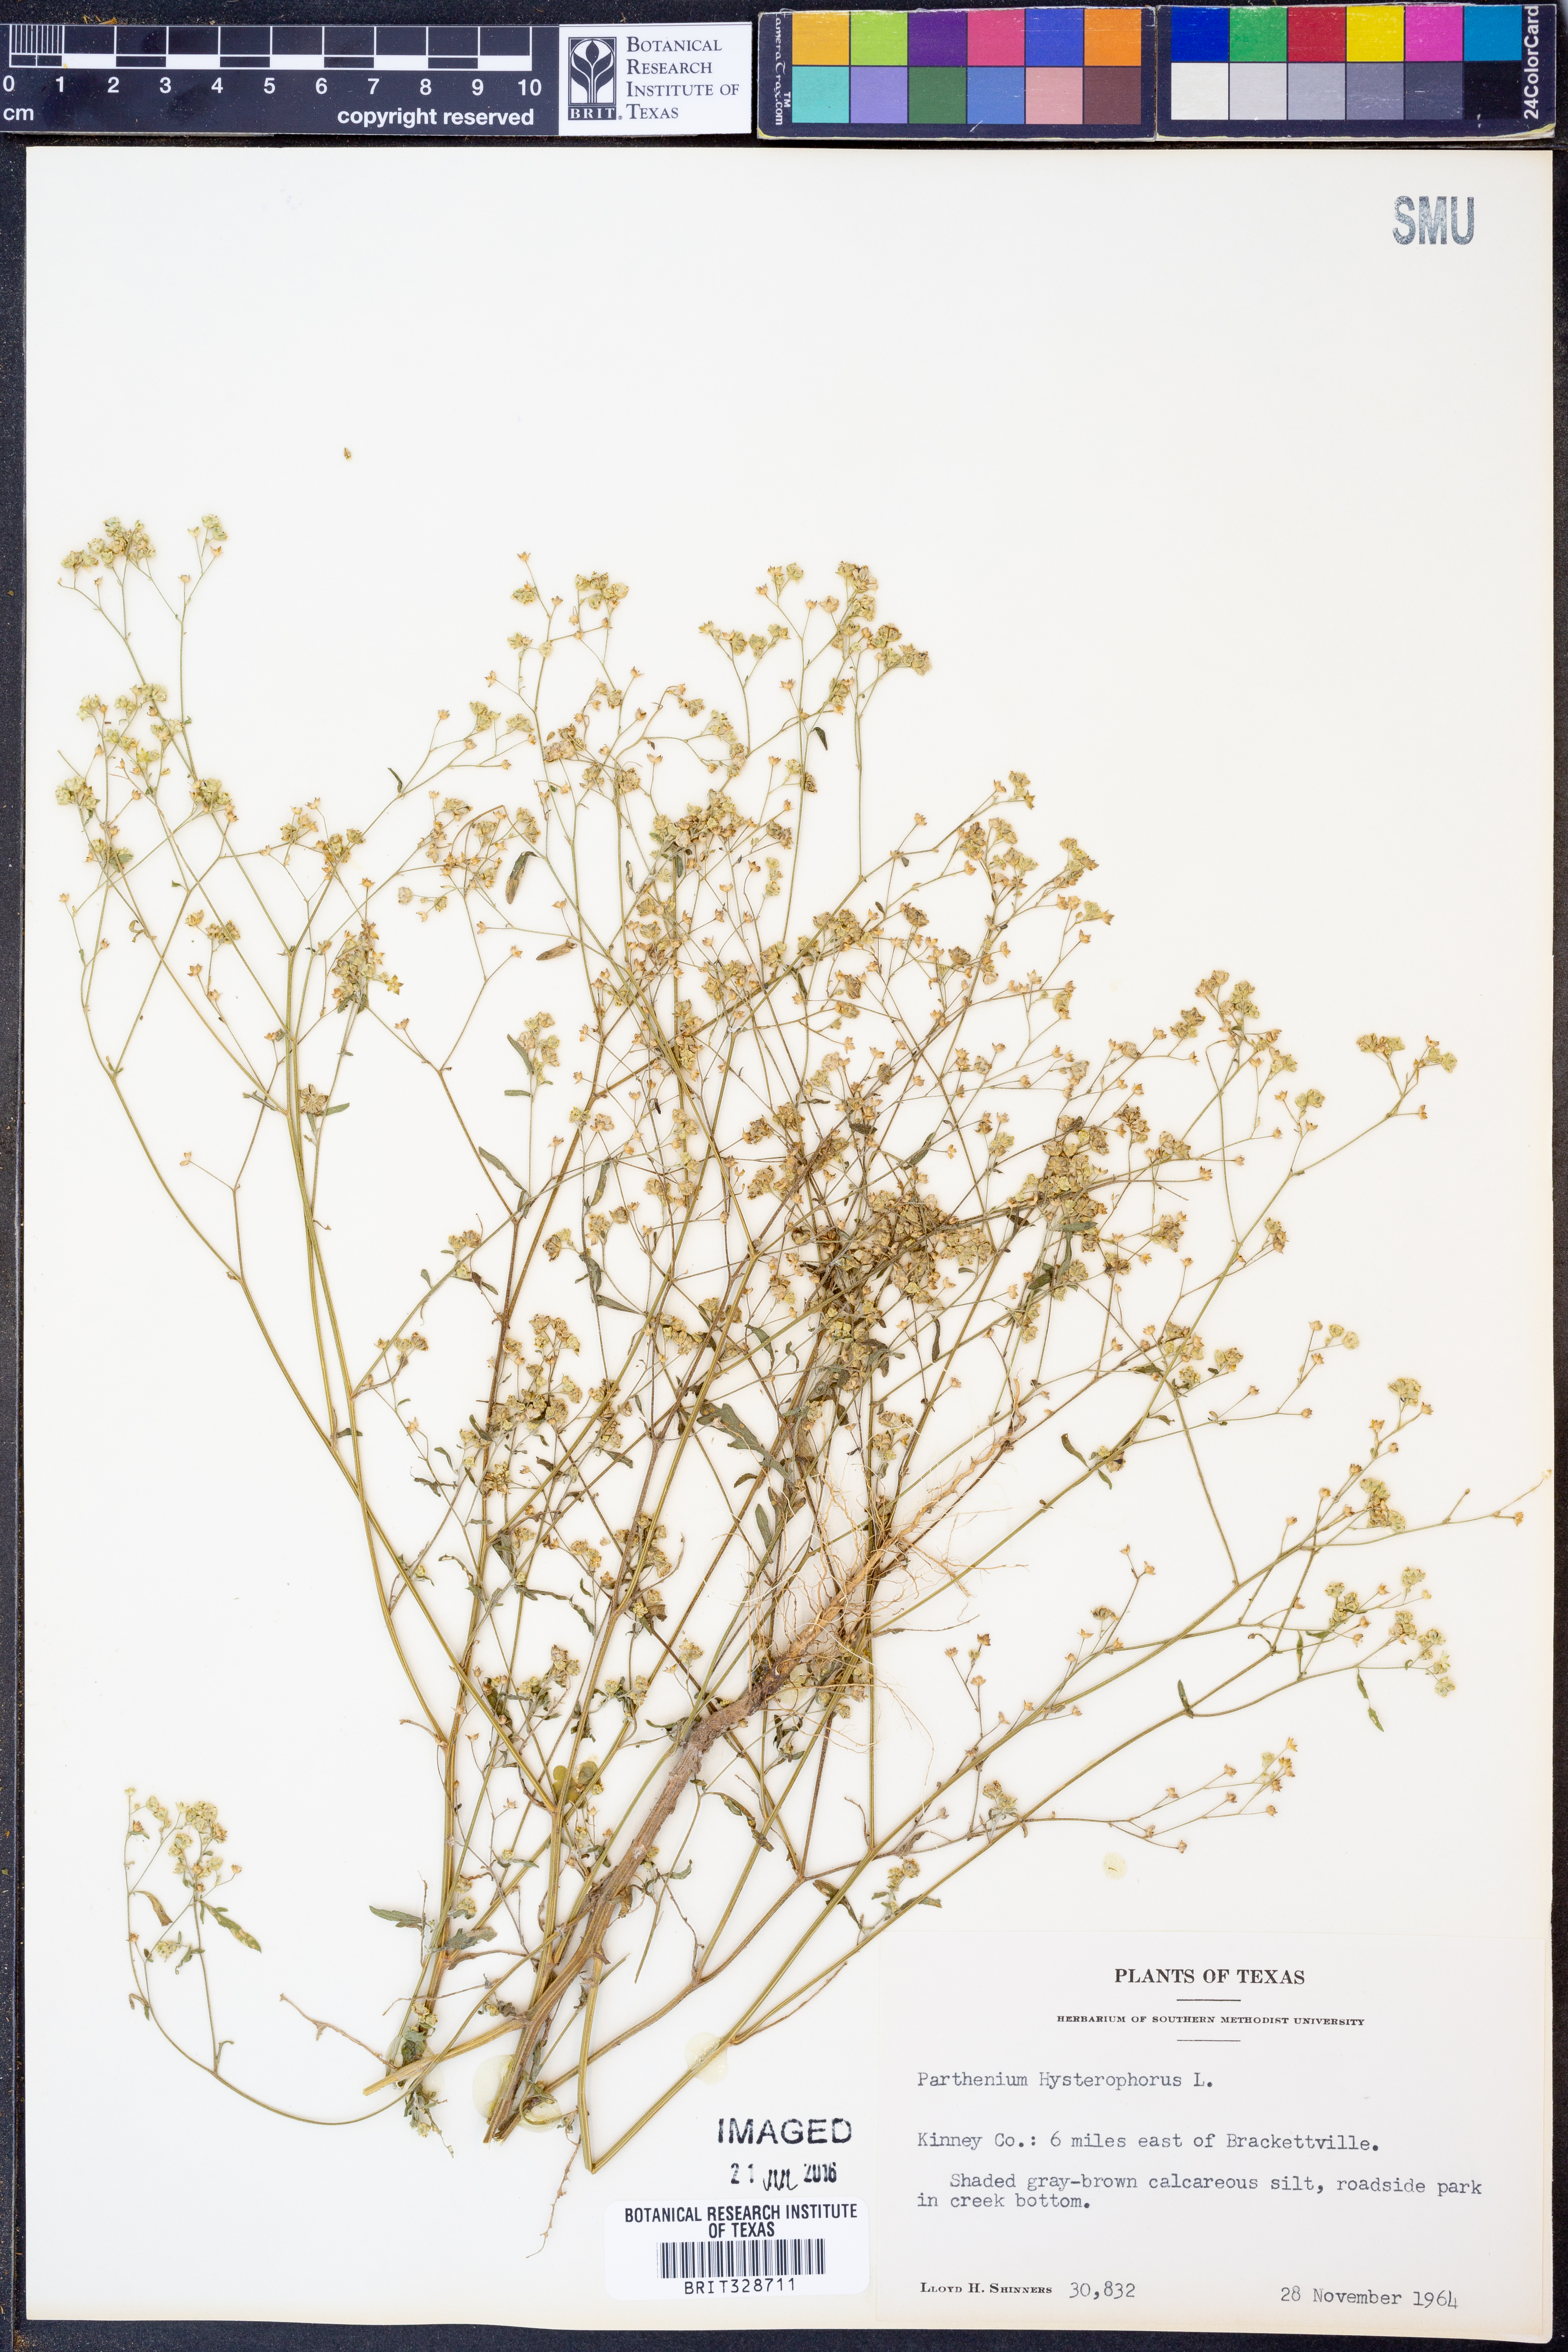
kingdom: Plantae
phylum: Tracheophyta
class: Magnoliopsida
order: Asterales
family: Asteraceae
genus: Parthenium
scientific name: Parthenium hysterophorus
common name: Santa maria feverfew
